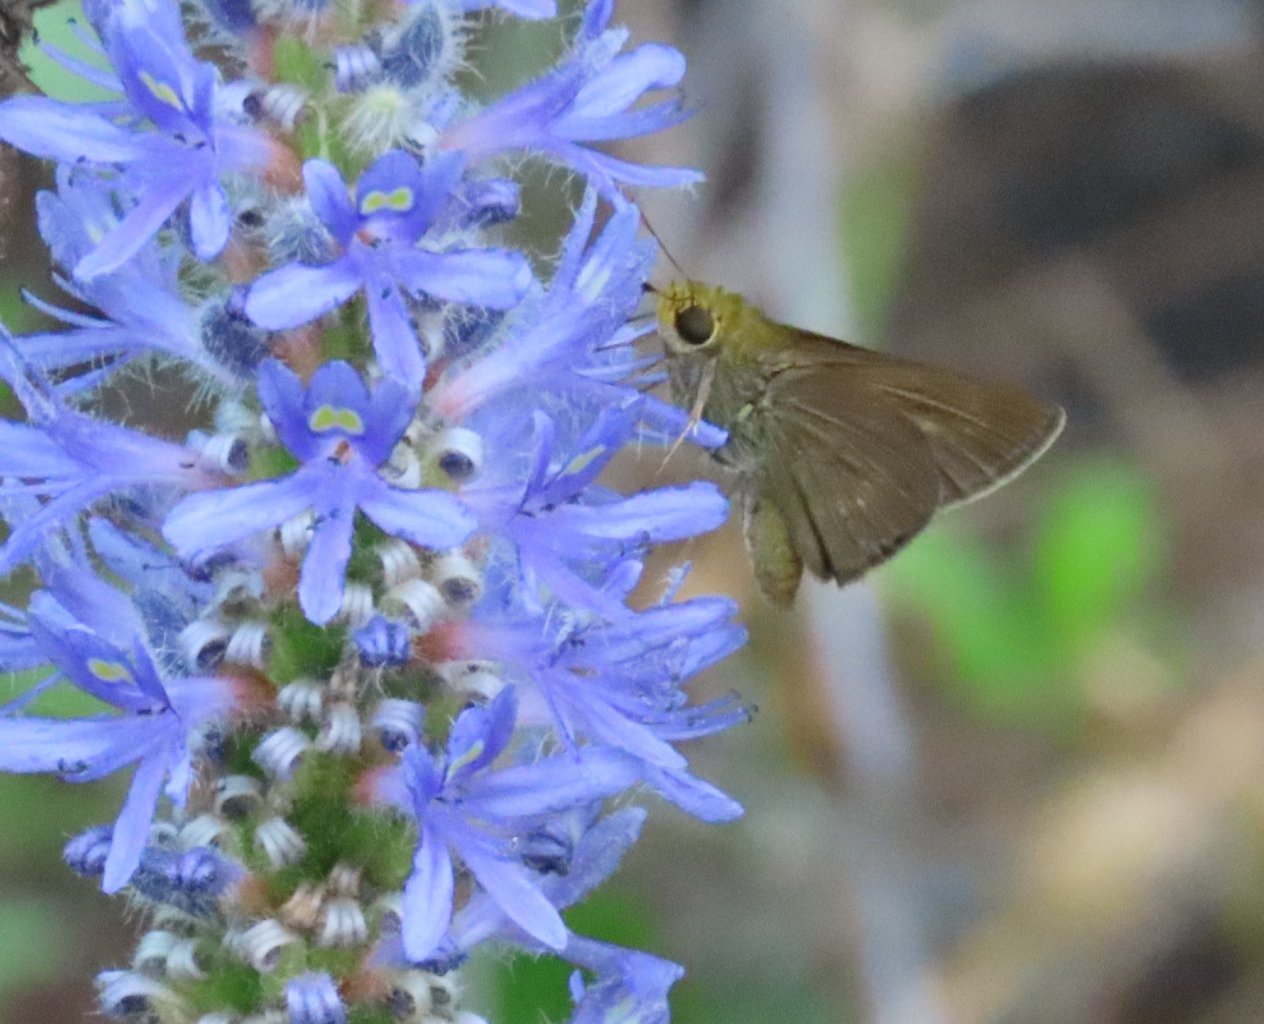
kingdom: Animalia
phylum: Arthropoda
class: Insecta
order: Lepidoptera
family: Hesperiidae
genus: Wallengrenia
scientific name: Wallengrenia otho
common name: Southern Broken-Dash
